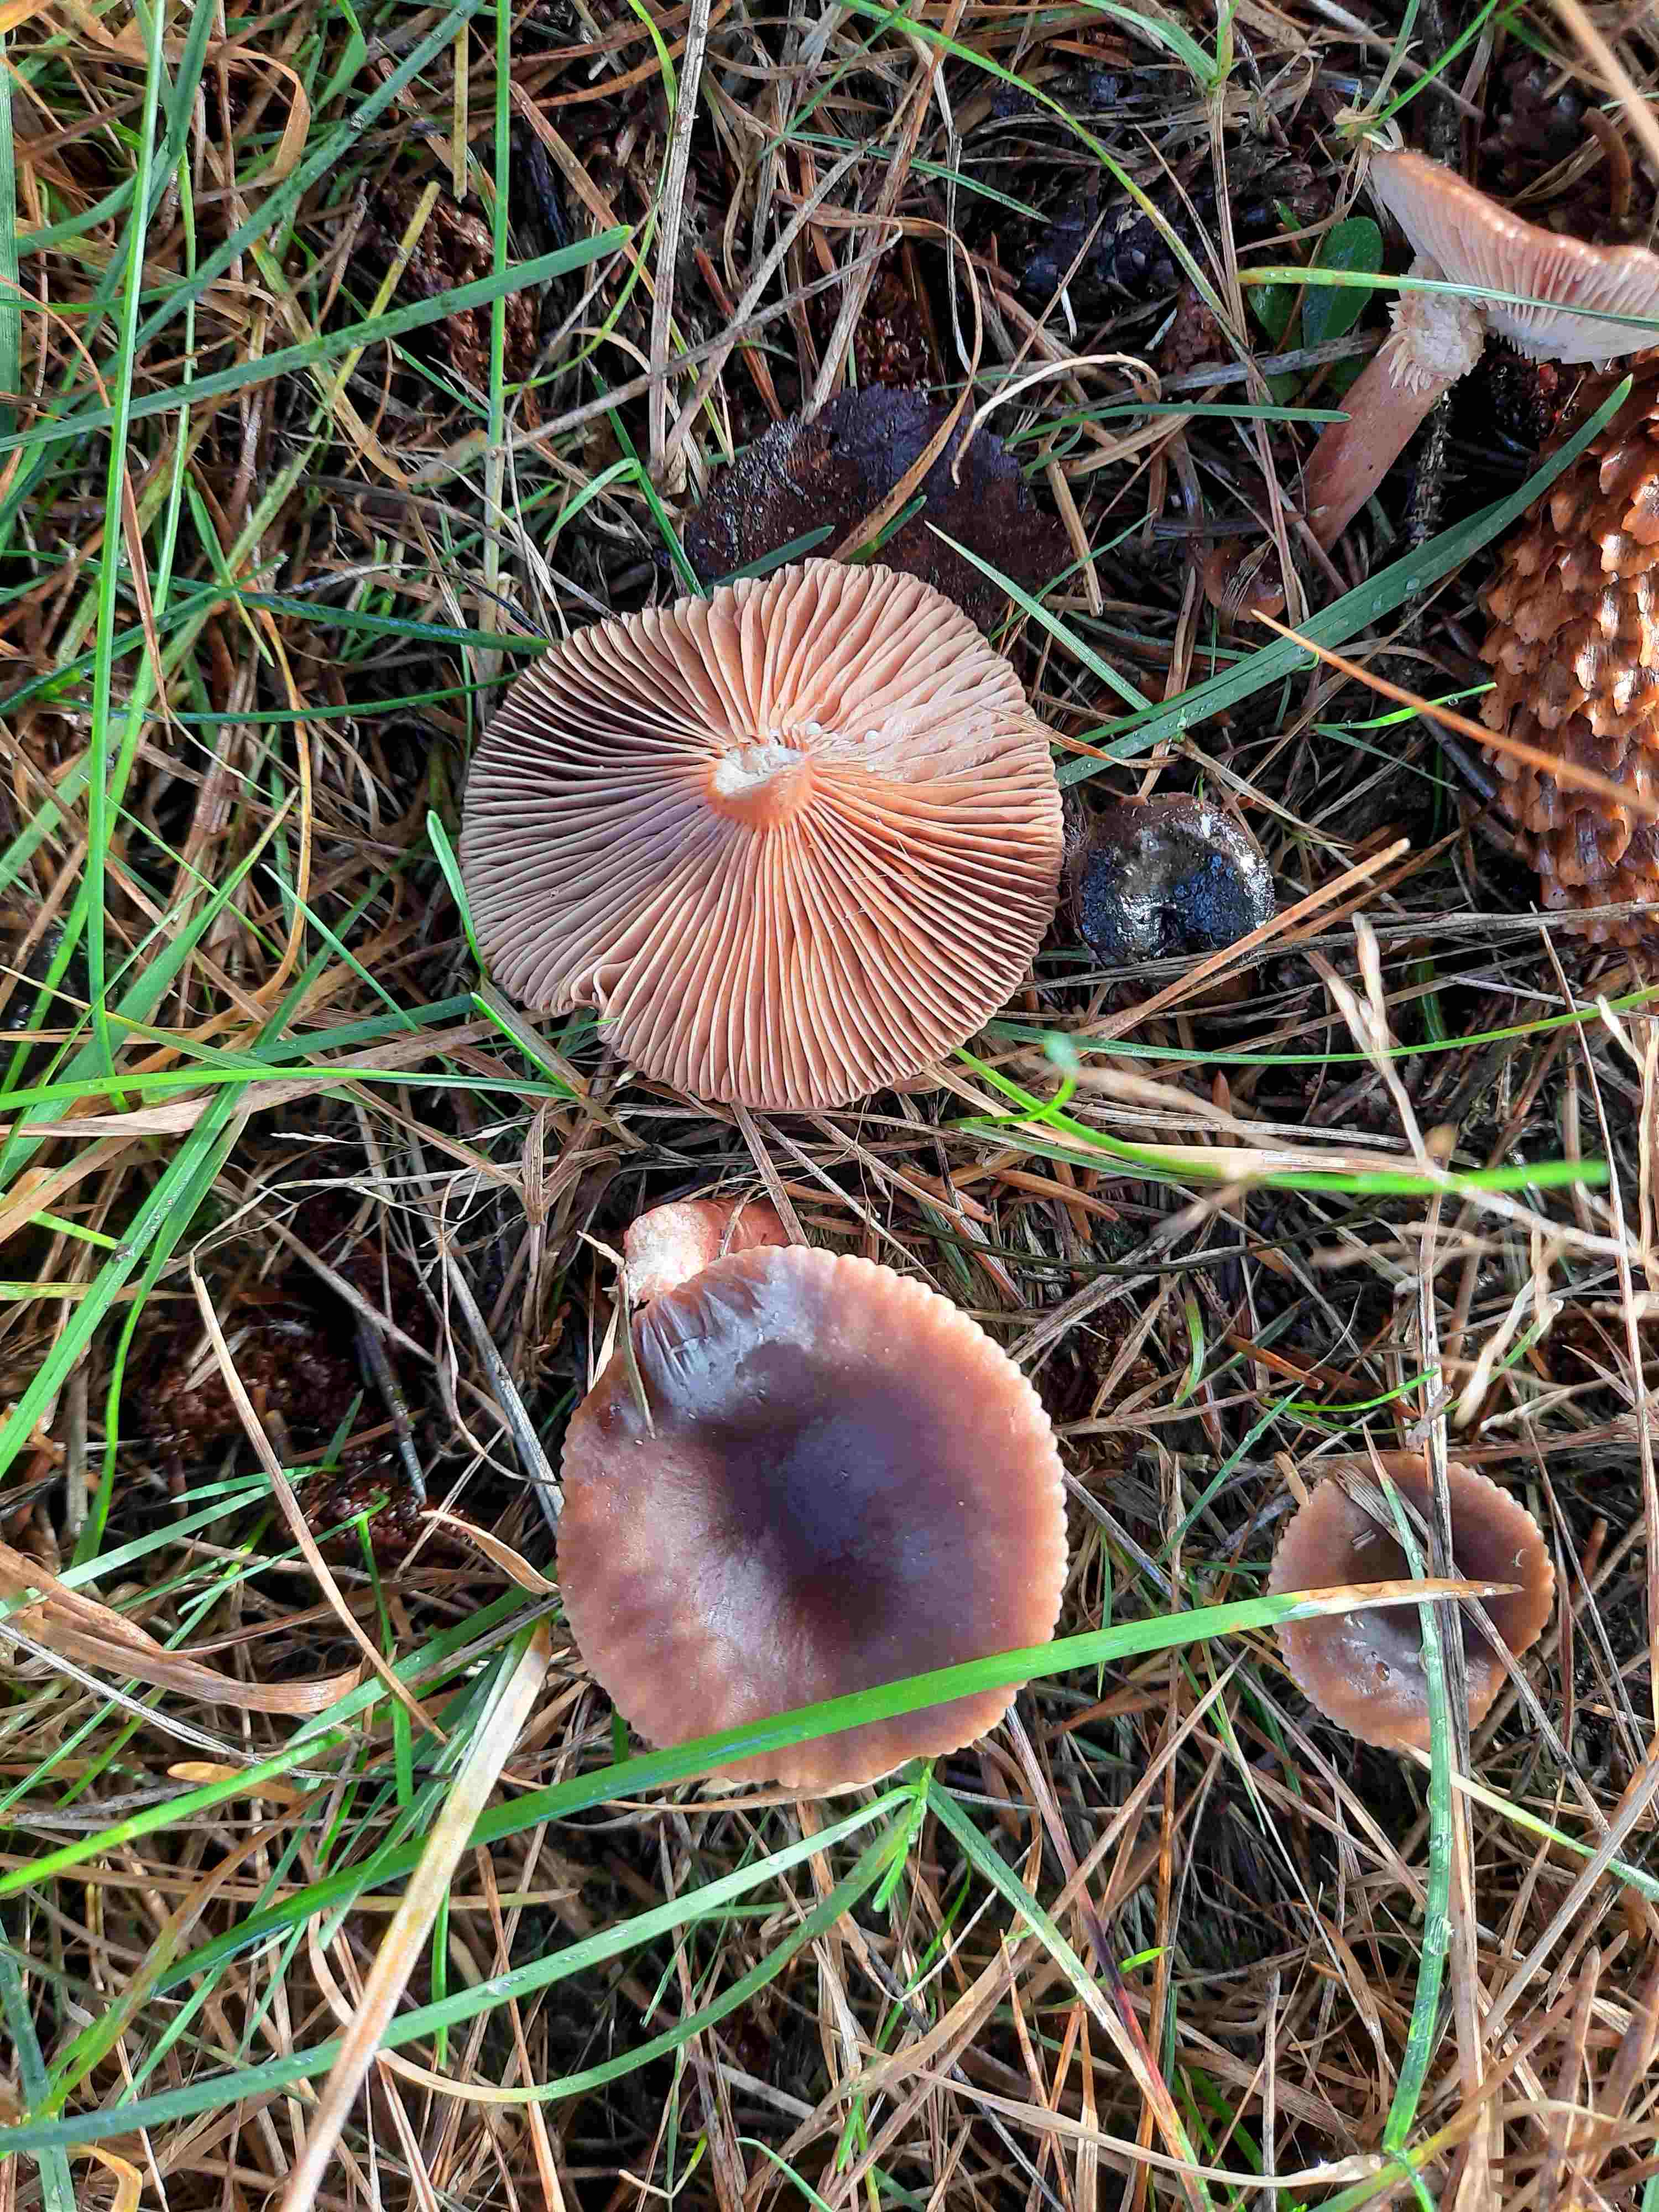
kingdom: Fungi
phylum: Basidiomycota
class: Agaricomycetes
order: Russulales
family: Russulaceae
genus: Lactarius
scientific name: Lactarius hepaticus
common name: leverbrun mælkehat
